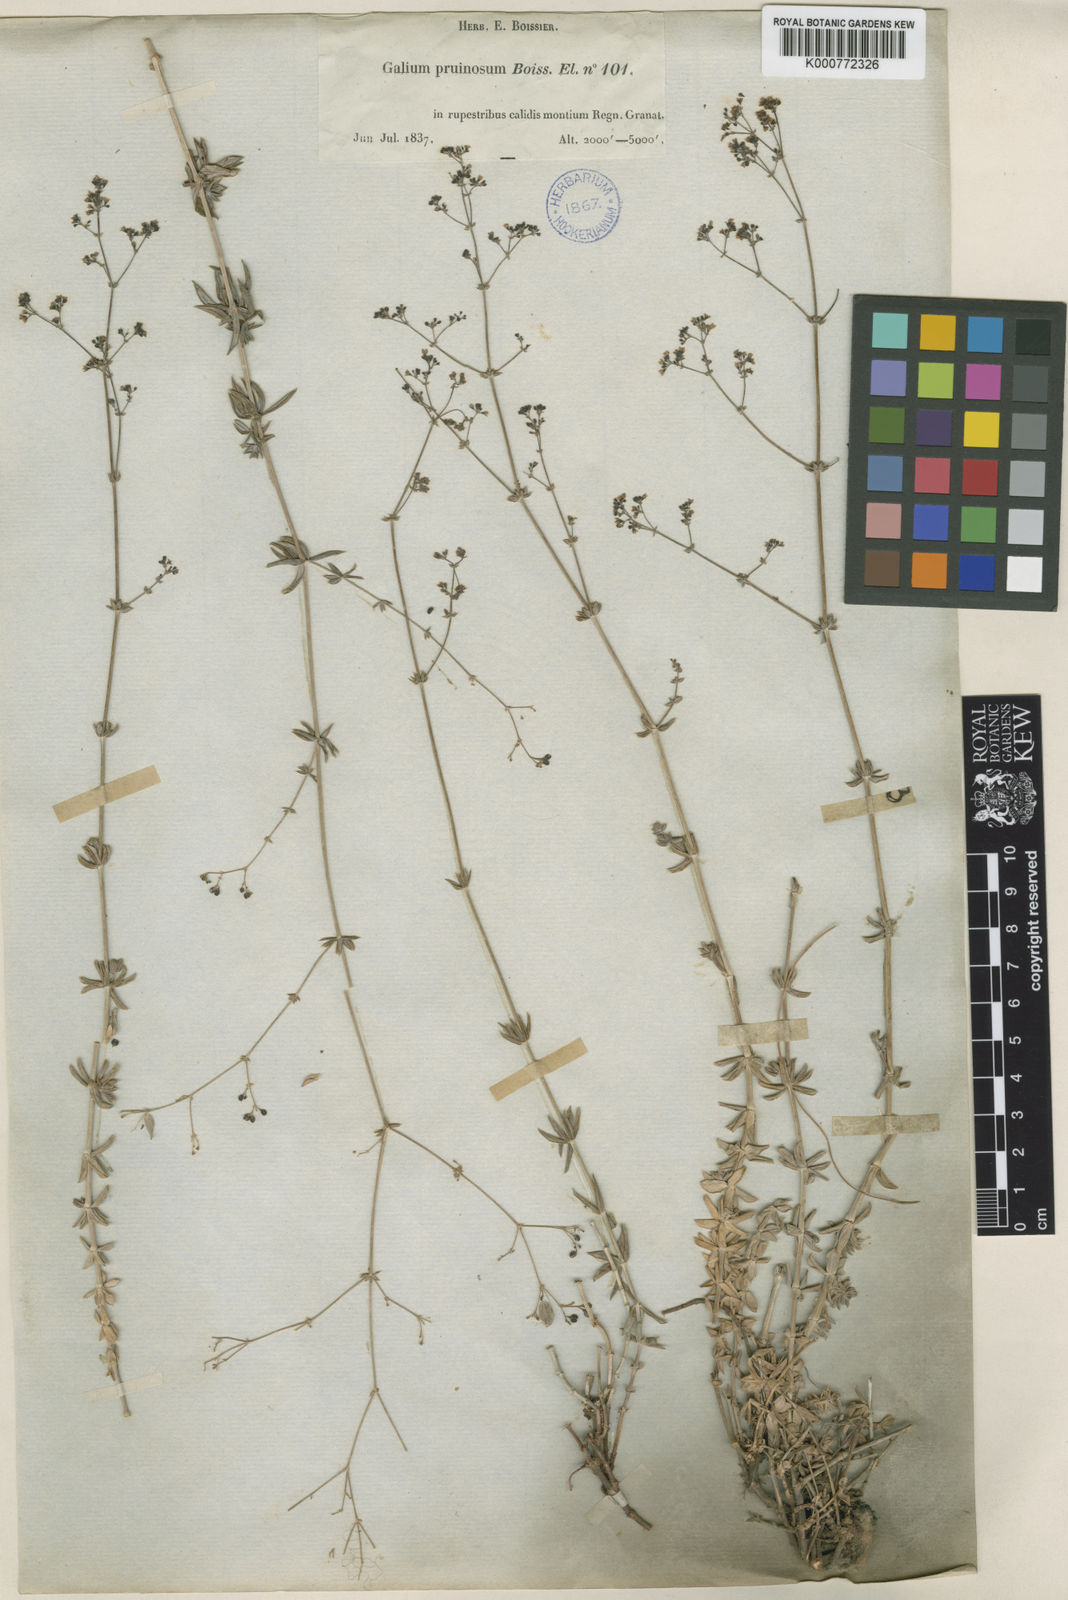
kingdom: Plantae
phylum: Tracheophyta
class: Magnoliopsida
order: Gentianales
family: Rubiaceae
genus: Galium
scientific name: Galium pruinosum
